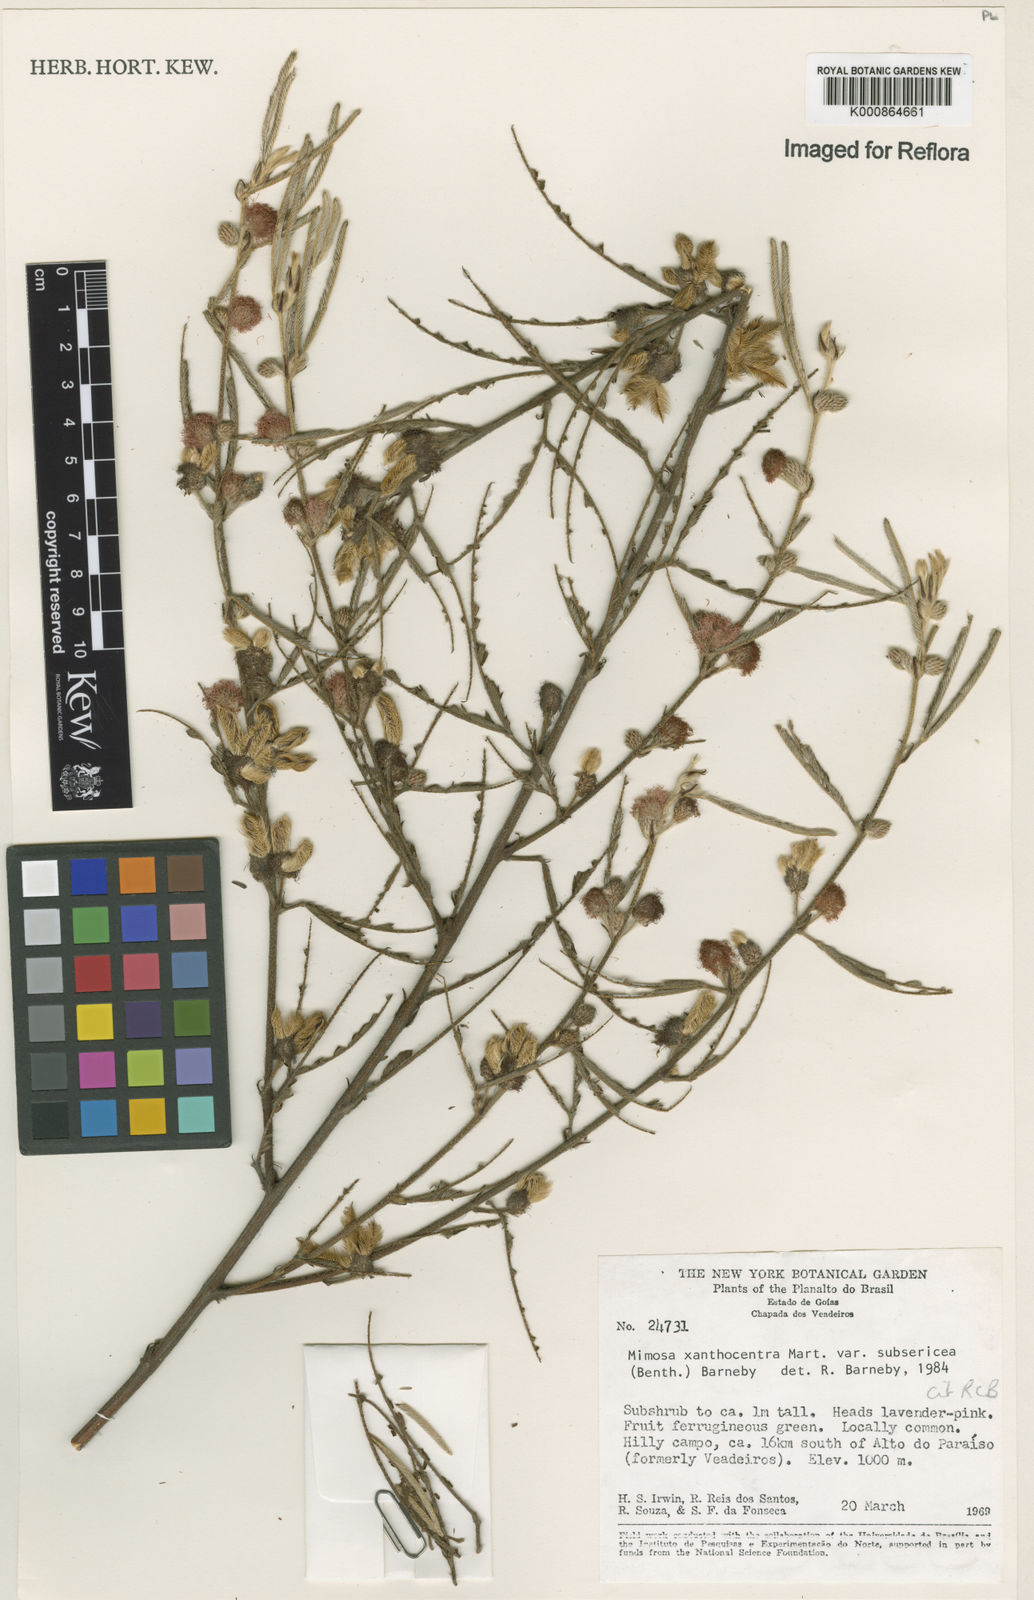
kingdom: Plantae
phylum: Tracheophyta
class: Magnoliopsida
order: Fabales
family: Fabaceae
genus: Mimosa
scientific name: Mimosa xanthocentra
